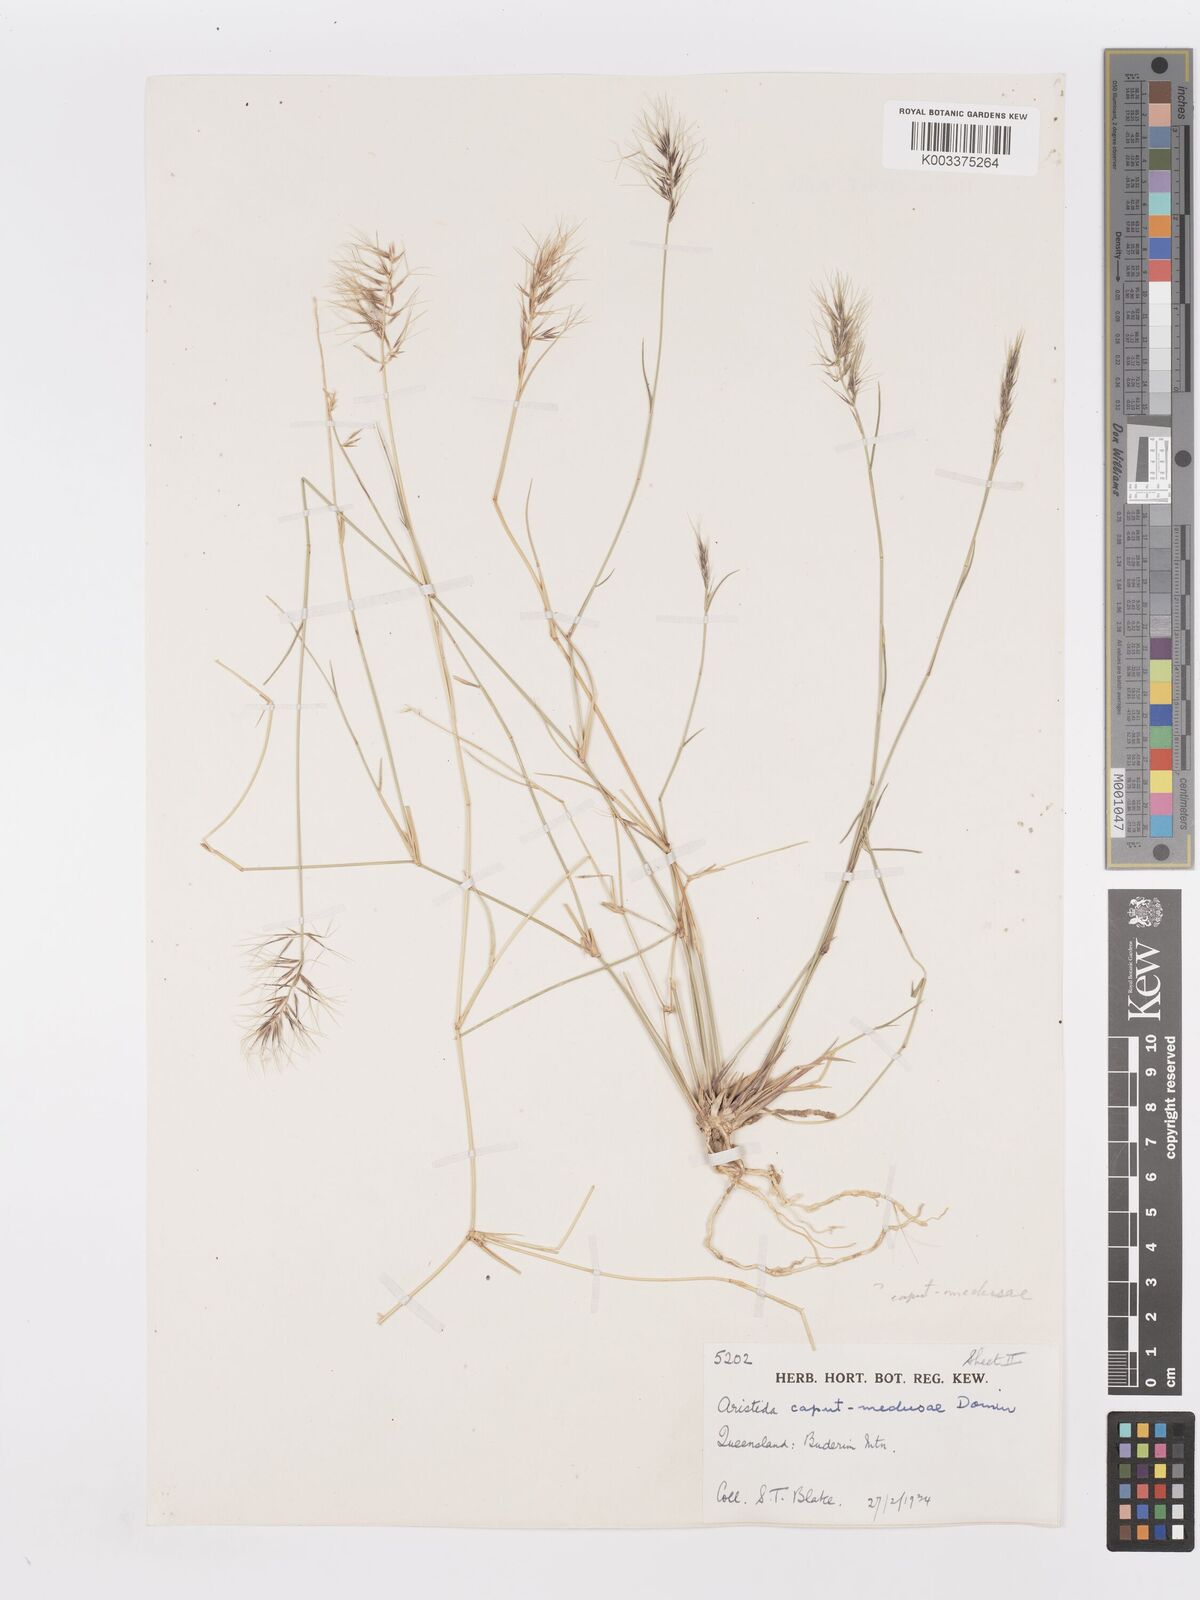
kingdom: Plantae
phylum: Tracheophyta
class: Liliopsida
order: Poales
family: Poaceae
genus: Aristida
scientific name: Aristida caput-medusae
